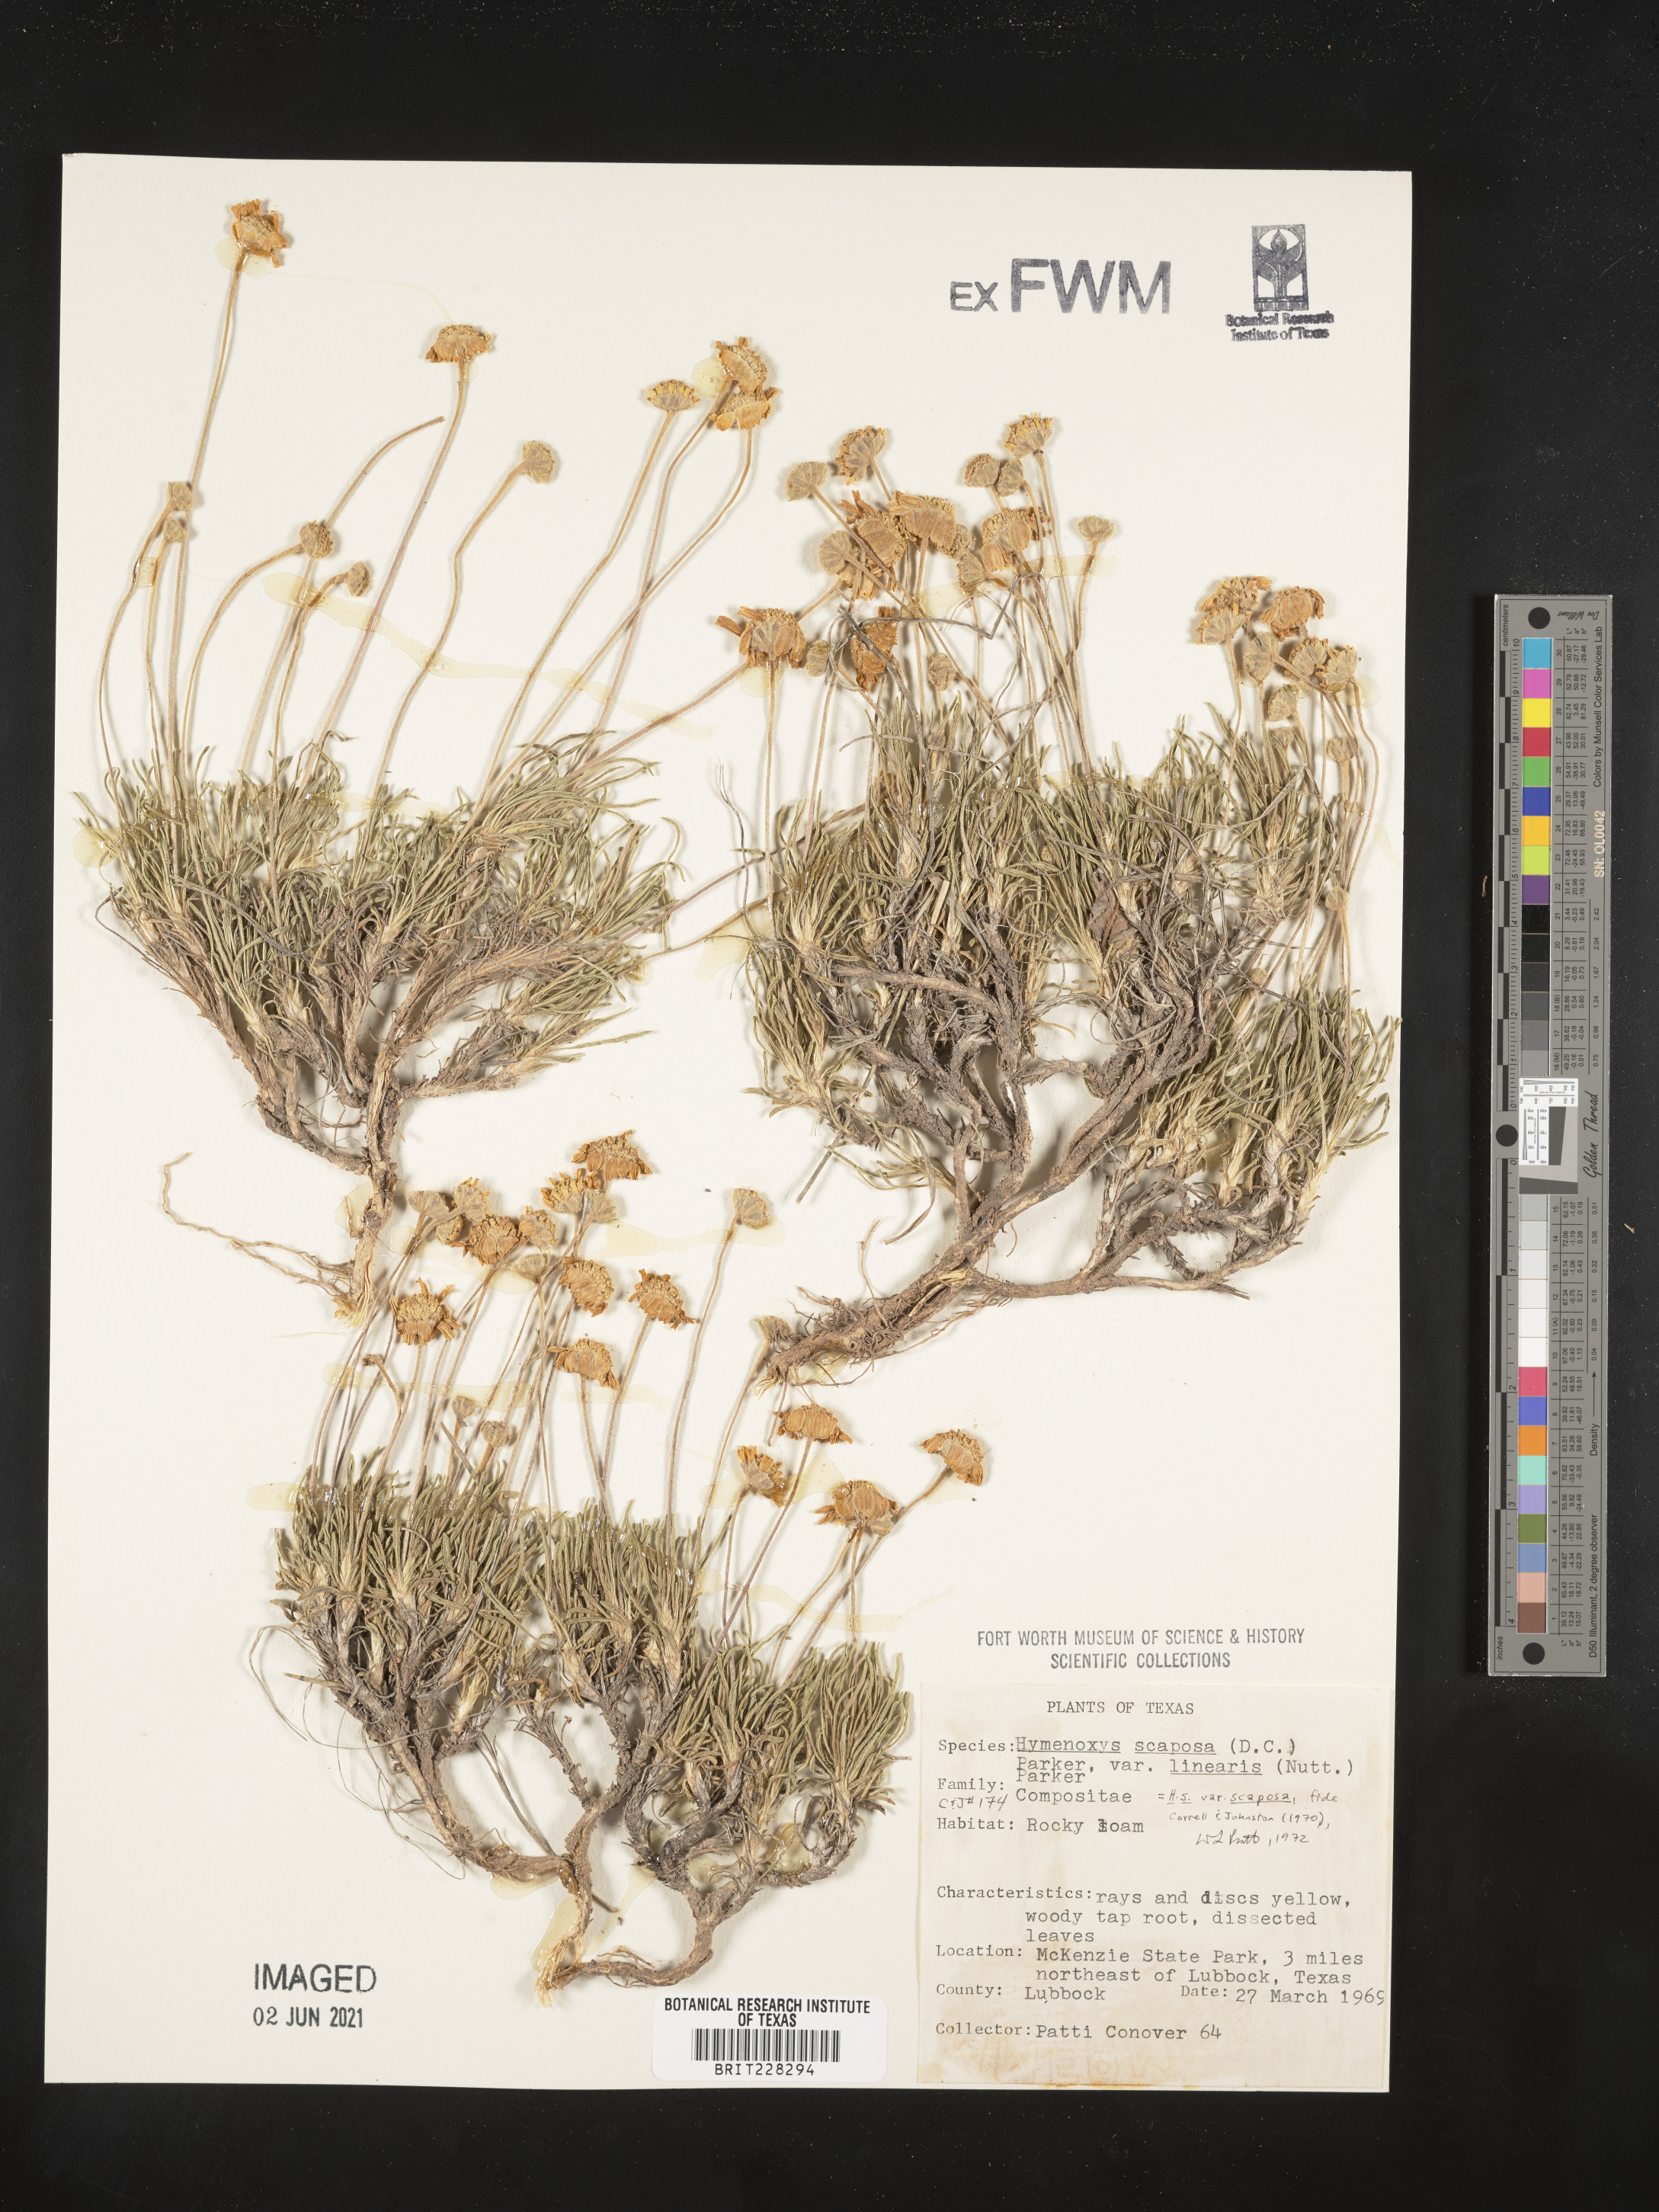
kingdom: Plantae
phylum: Tracheophyta
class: Magnoliopsida
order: Asterales
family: Asteraceae
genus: Tetraneuris
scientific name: Tetraneuris scaposa
